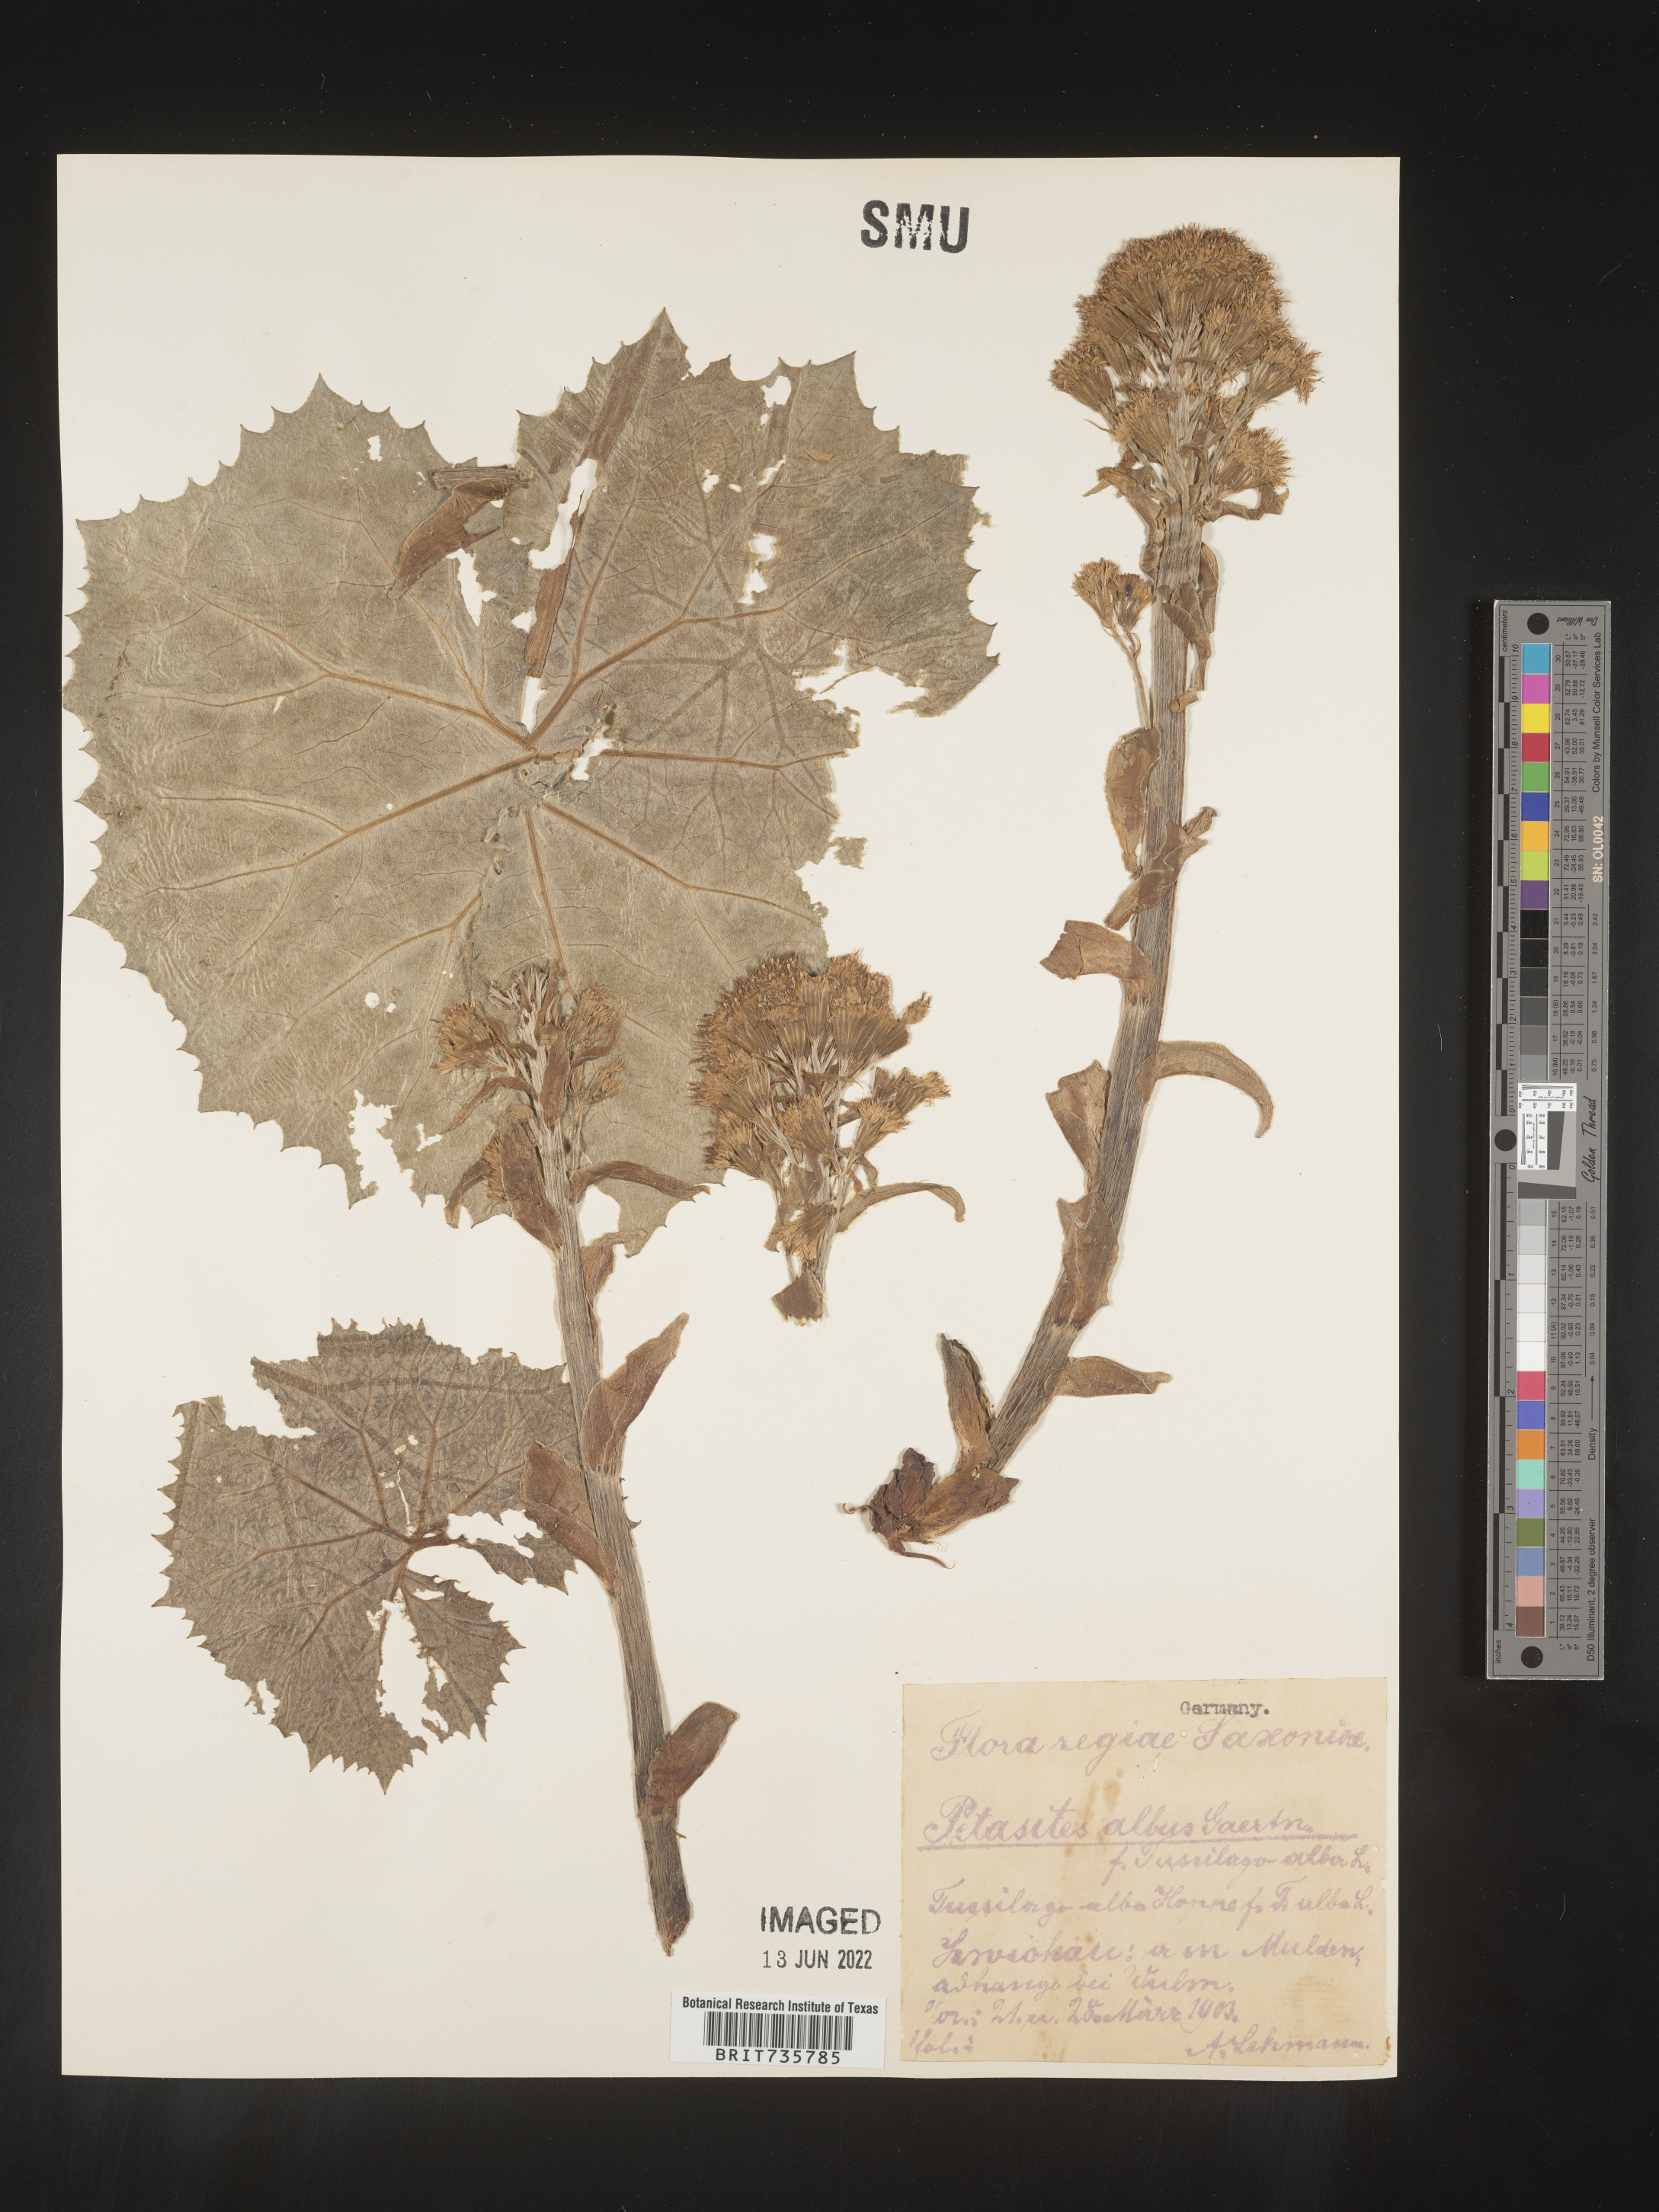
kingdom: Plantae
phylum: Tracheophyta
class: Magnoliopsida
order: Asterales
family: Asteraceae
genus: Petasites
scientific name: Petasites
